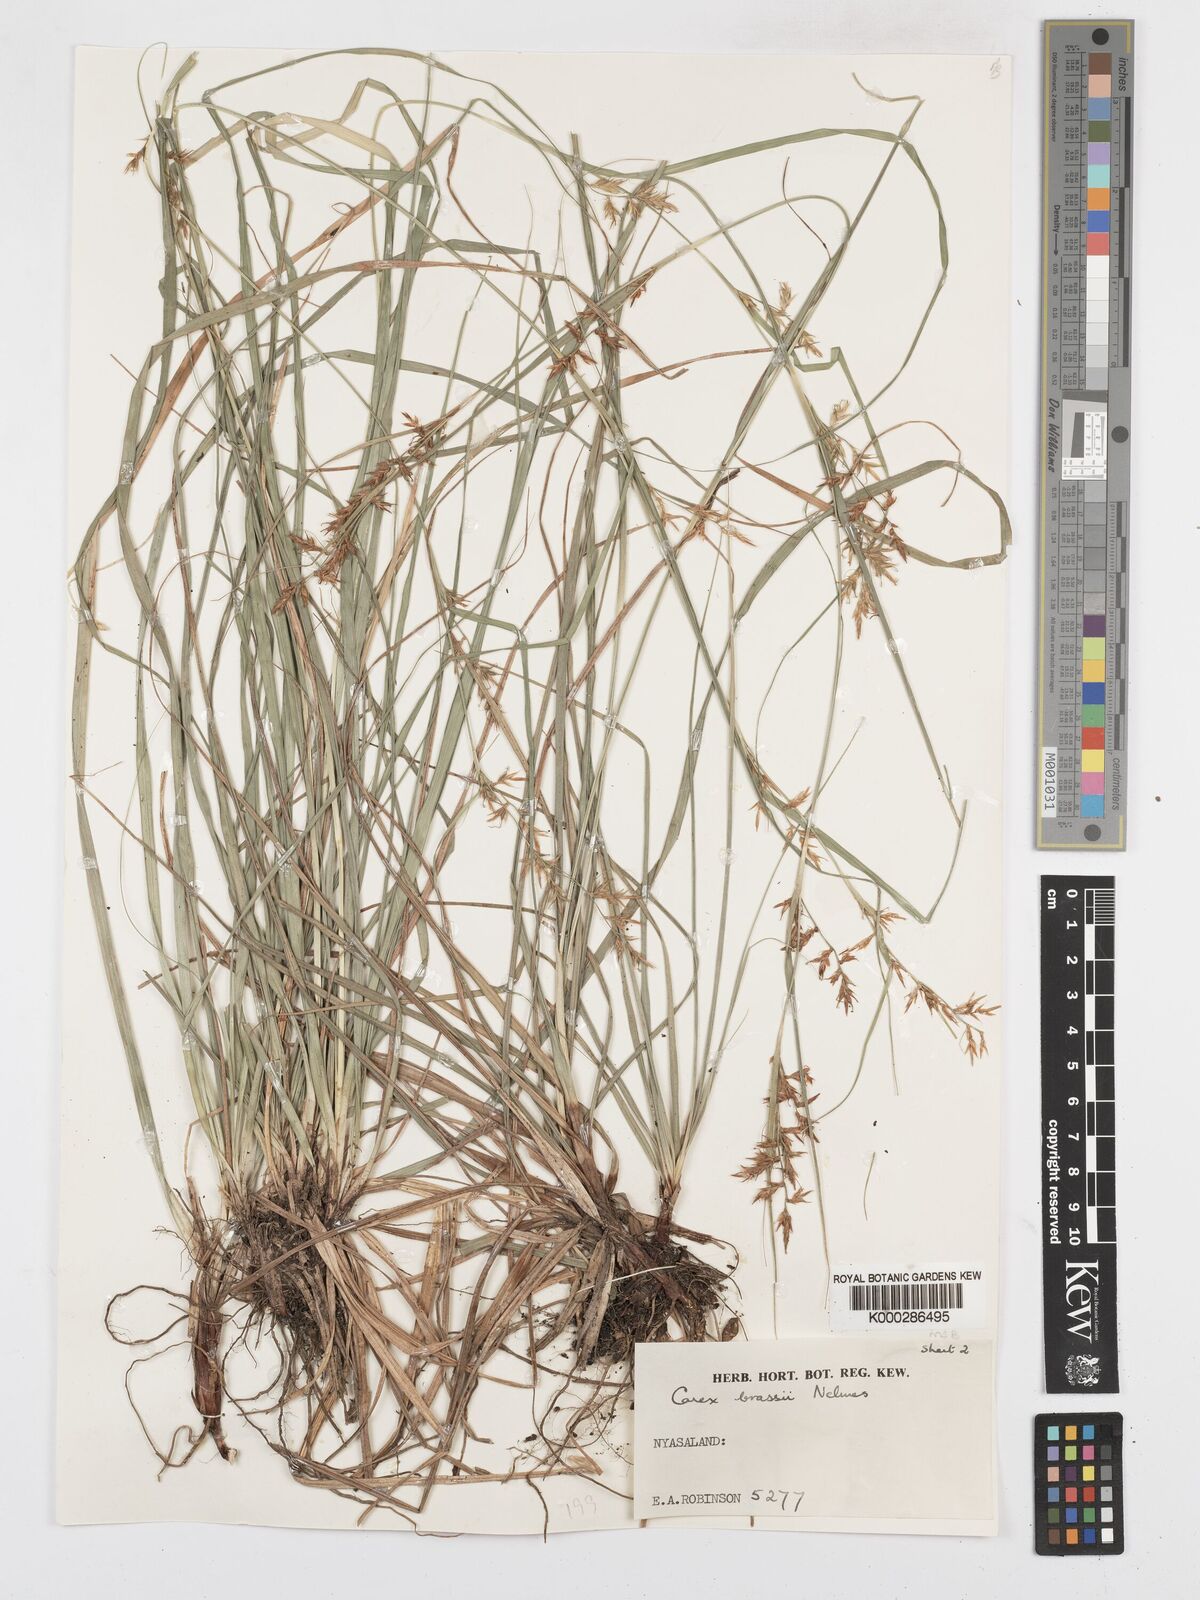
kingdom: Plantae
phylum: Tracheophyta
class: Liliopsida
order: Poales
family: Cyperaceae
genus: Carex
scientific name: Carex chlorosaccus
